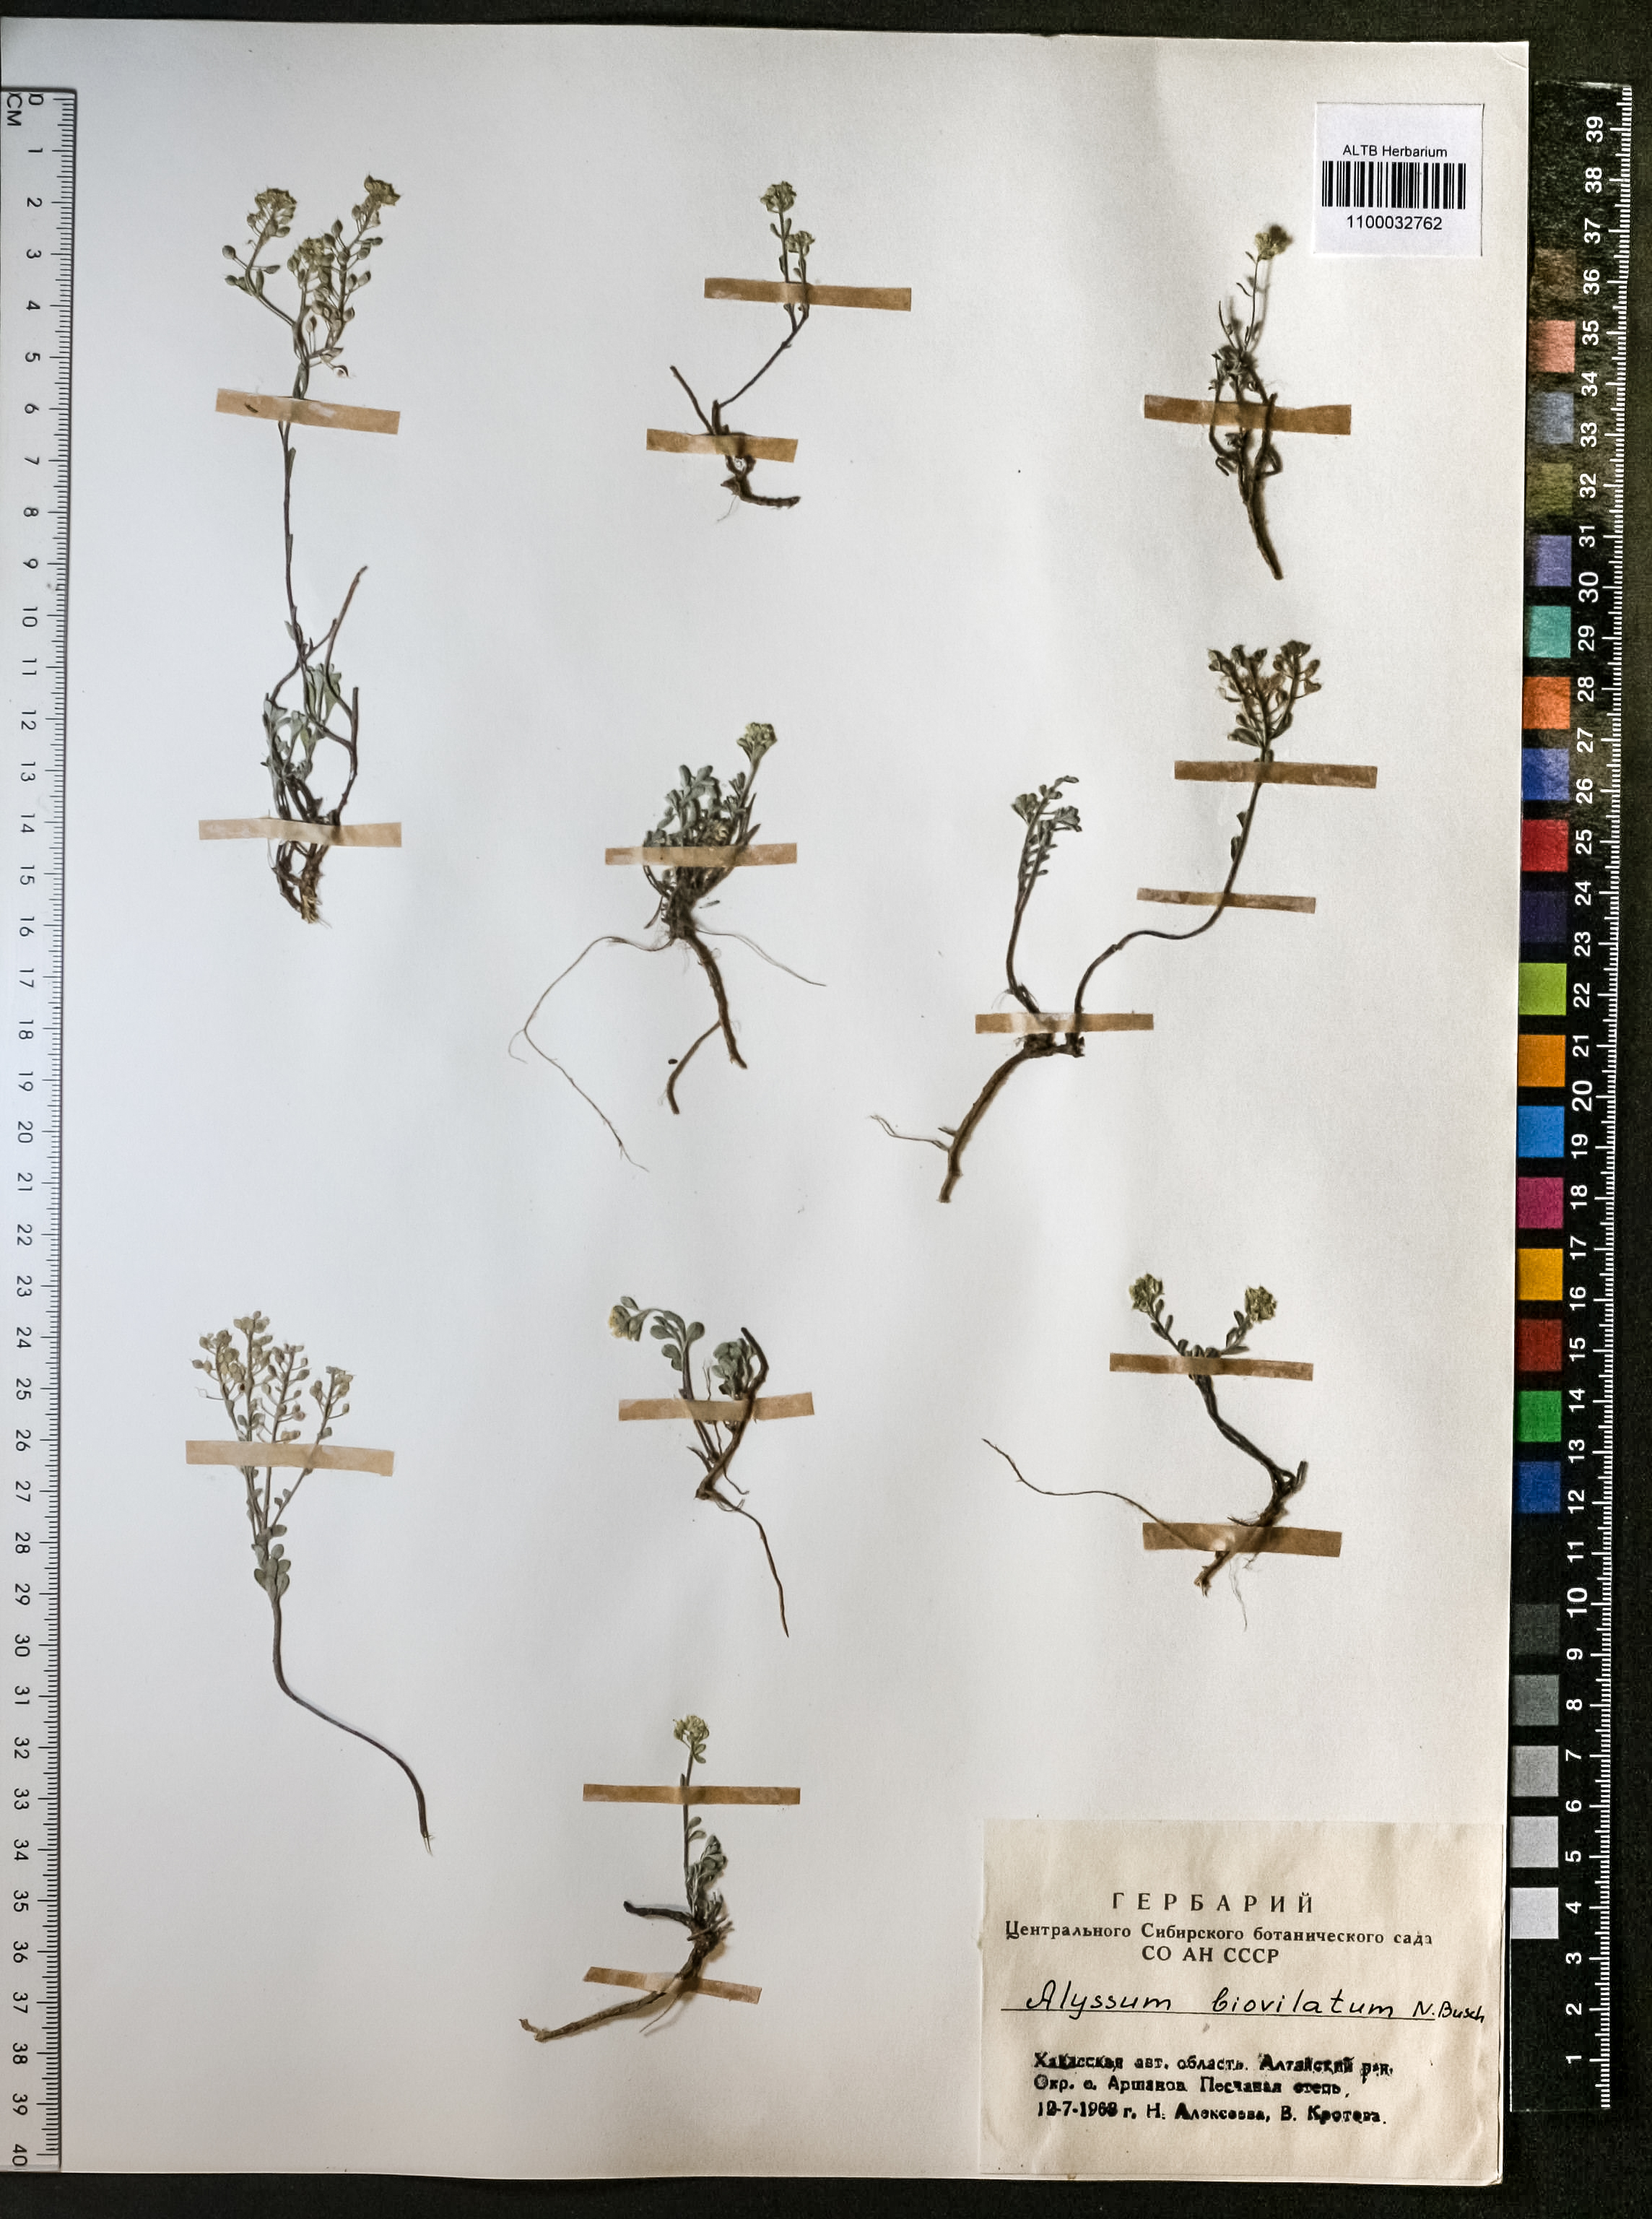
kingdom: Plantae
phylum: Tracheophyta
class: Magnoliopsida
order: Brassicales
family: Brassicaceae
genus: Odontarrhena
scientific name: Odontarrhena obovata
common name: American alyssum
